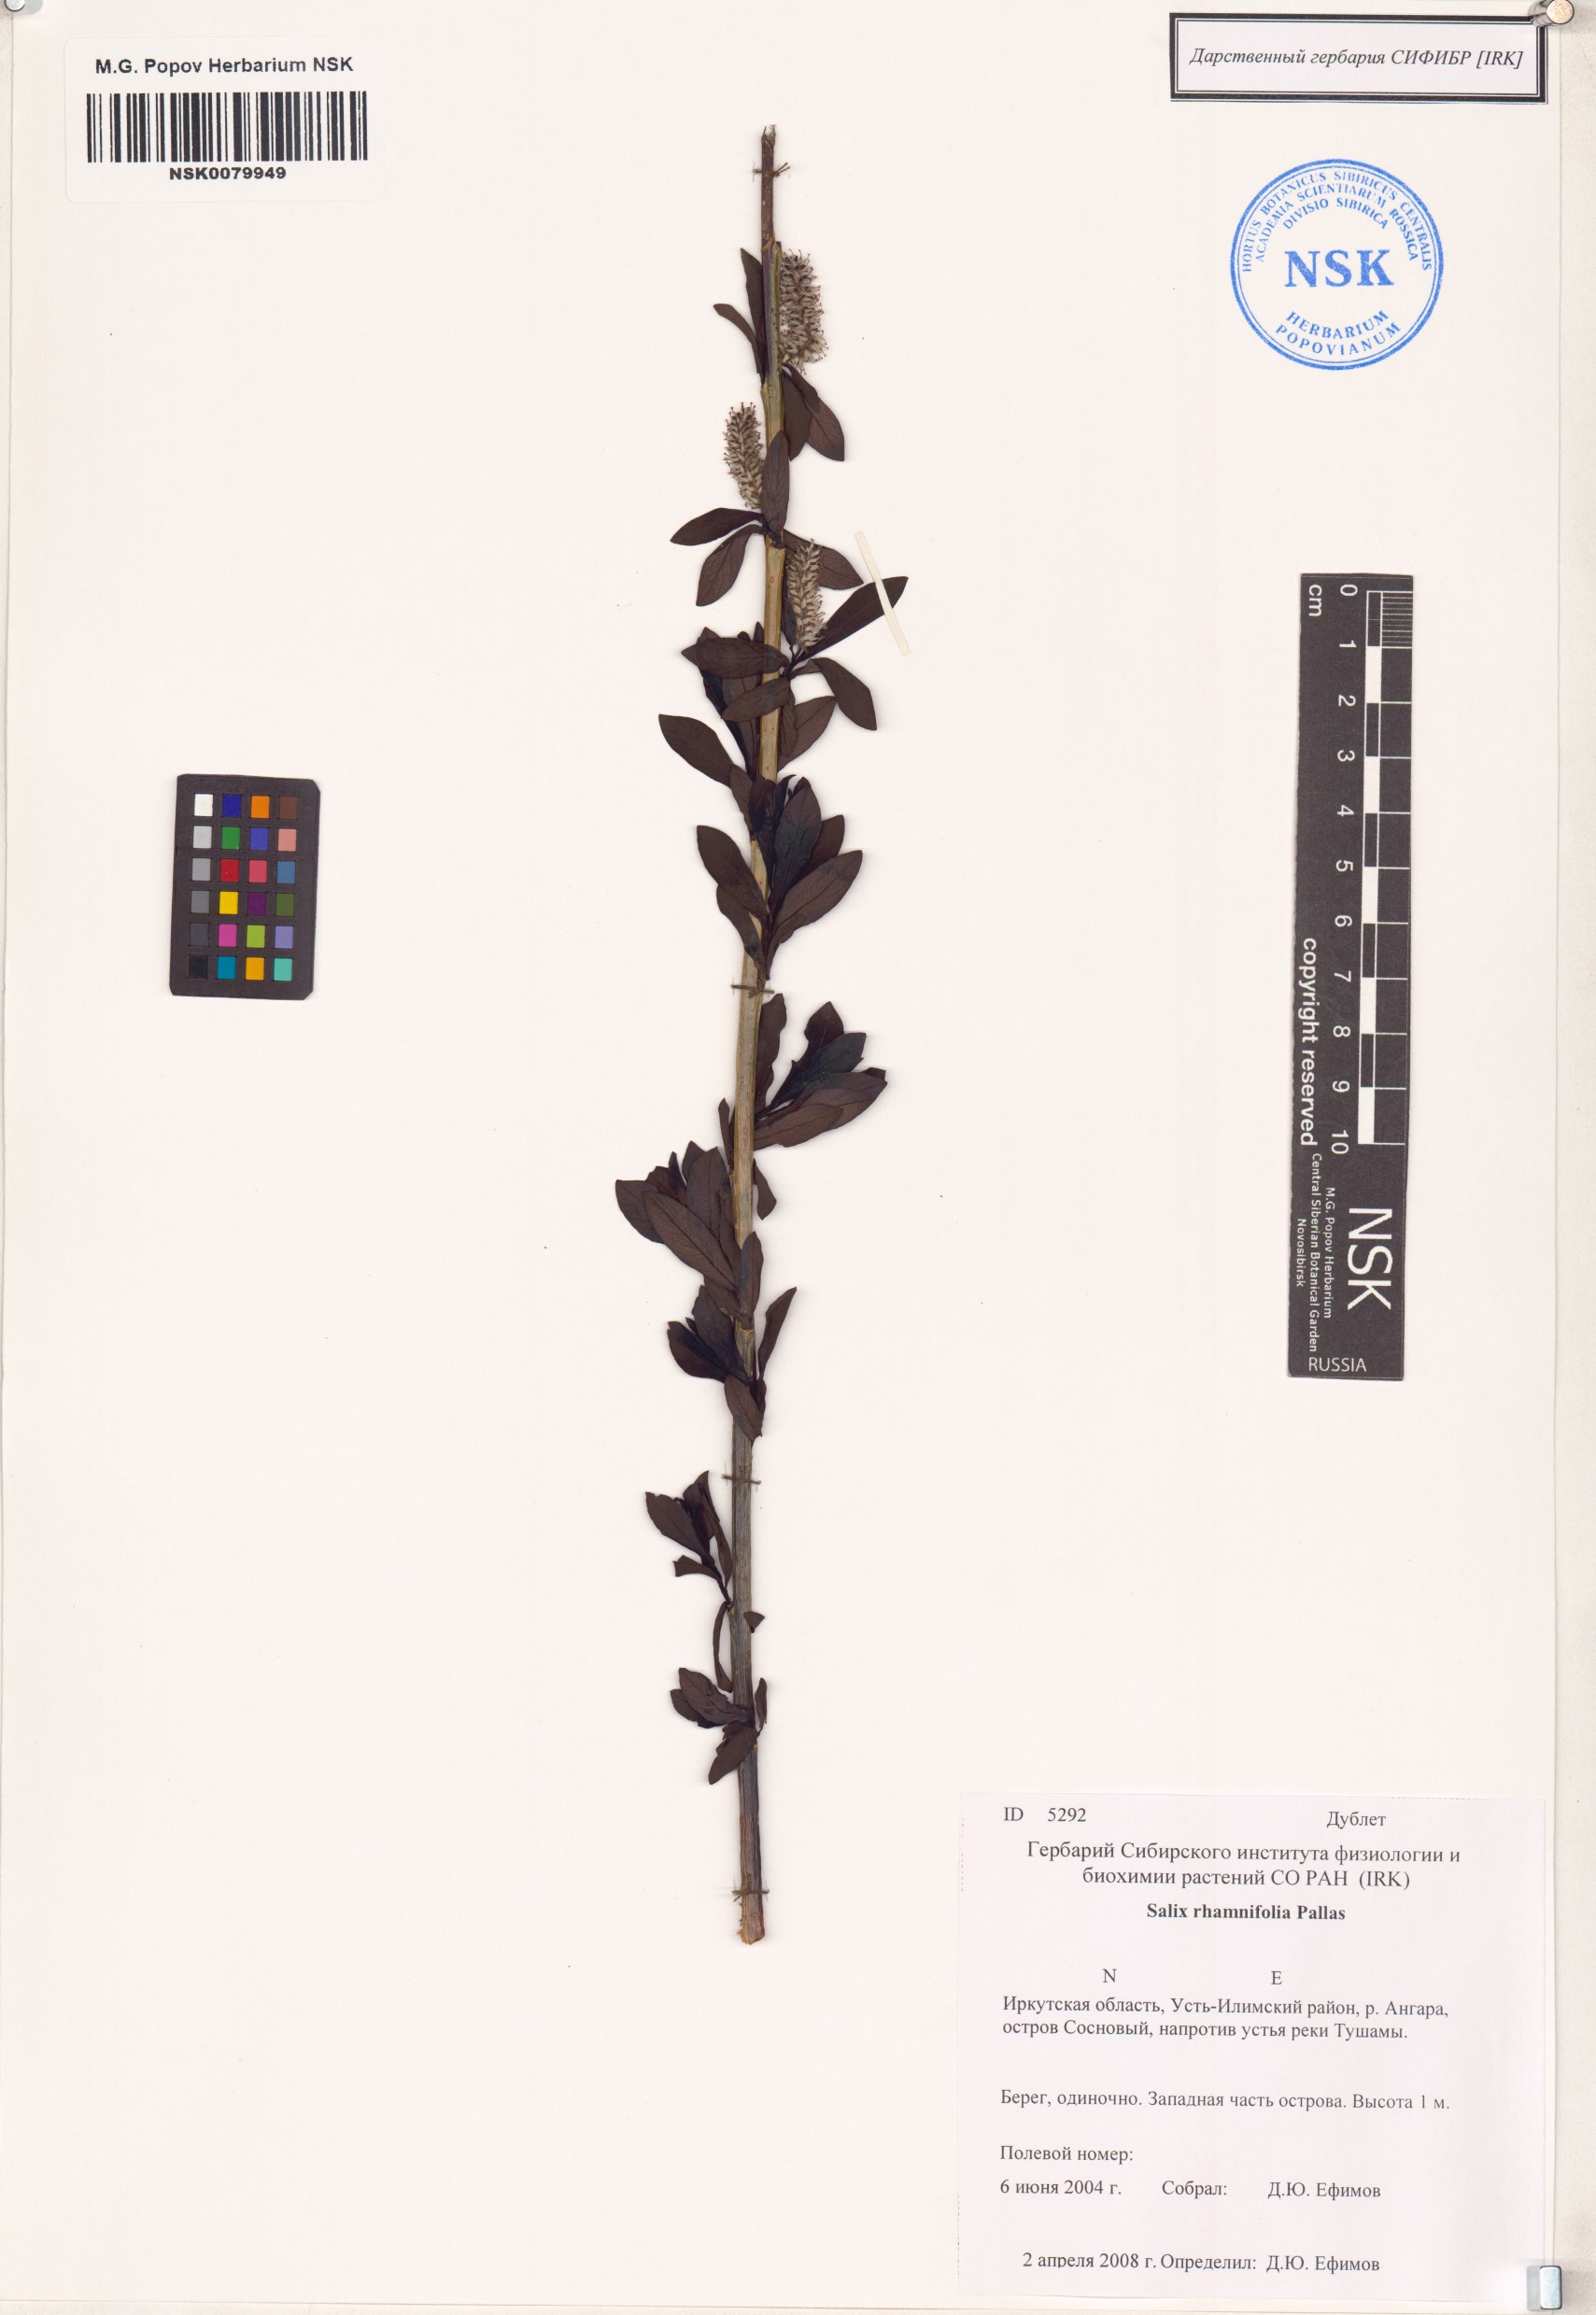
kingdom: Plantae
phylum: Tracheophyta
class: Magnoliopsida
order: Malpighiales
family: Salicaceae
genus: Salix
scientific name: Salix rhamnifolia
